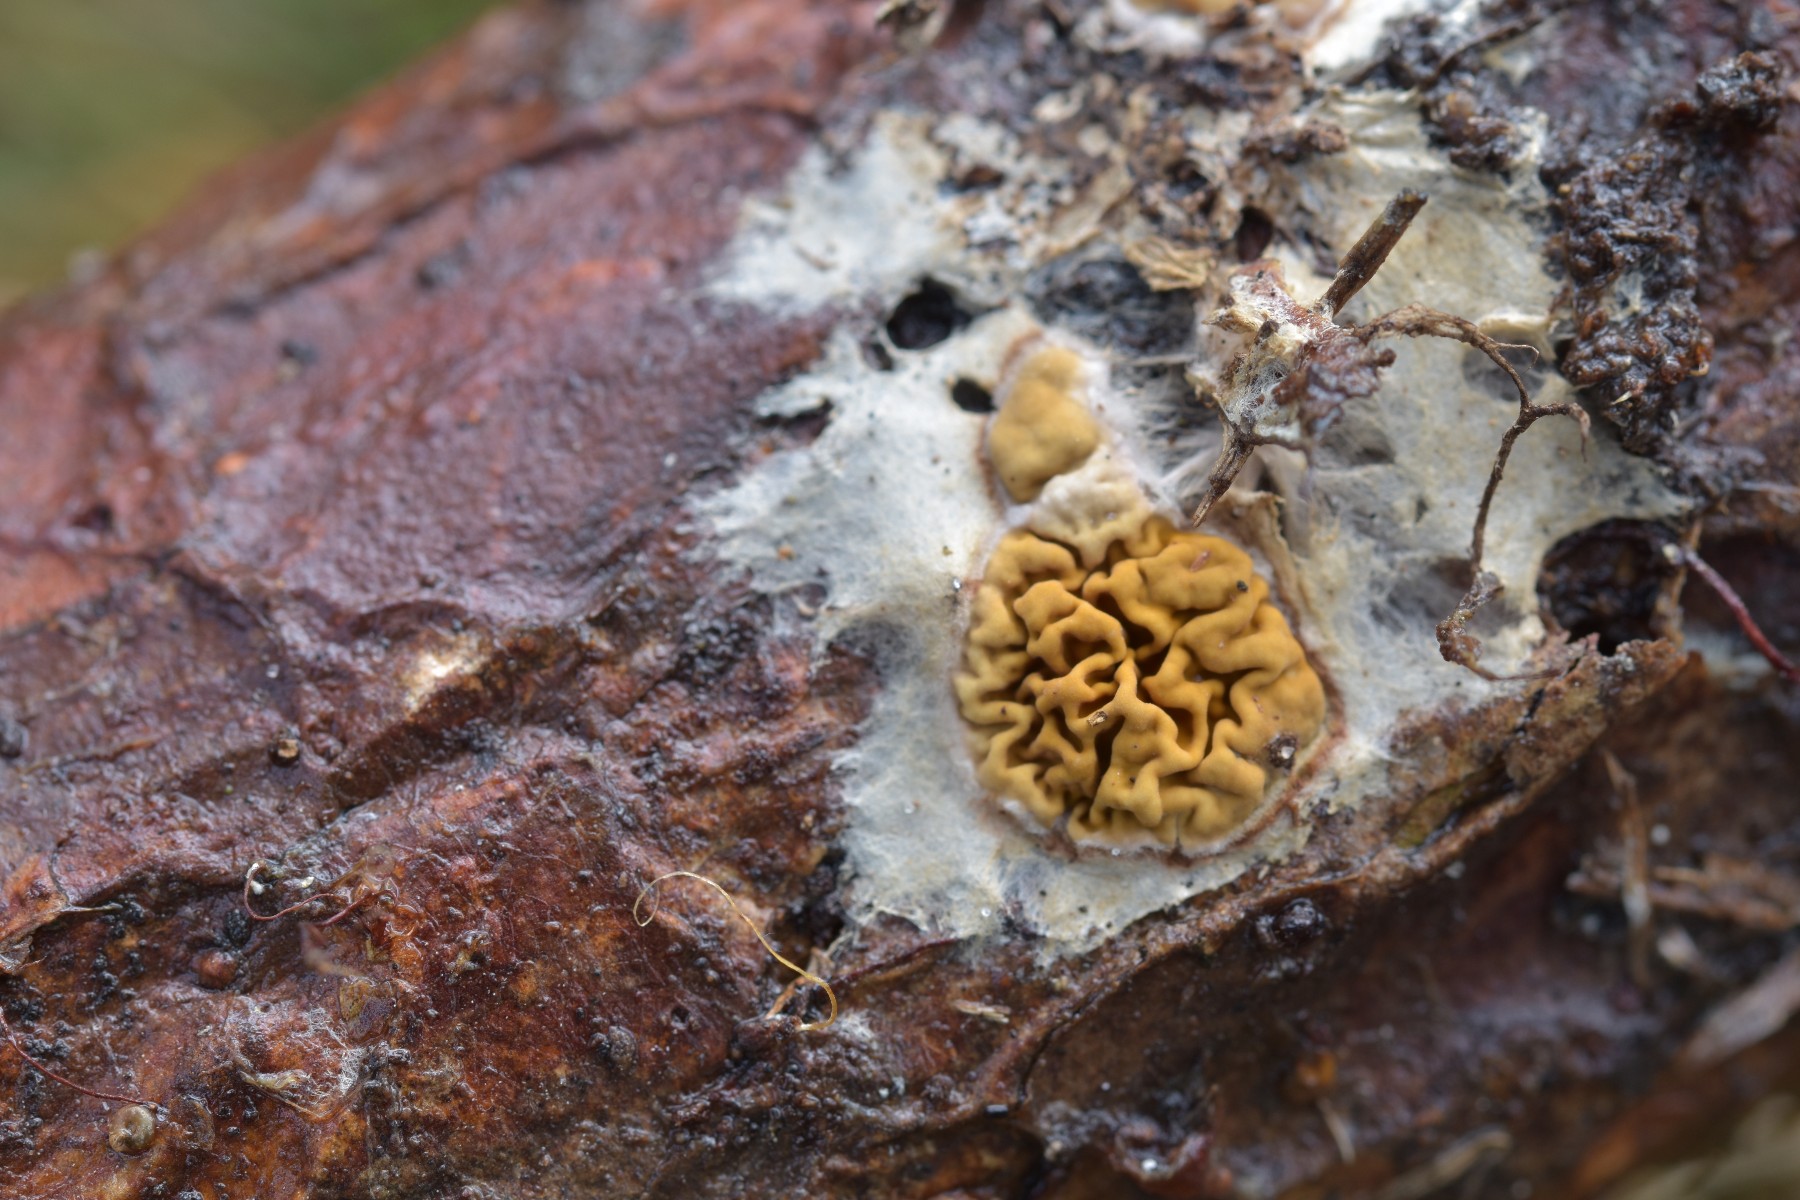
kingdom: Fungi
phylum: Basidiomycota
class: Agaricomycetes
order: Boletales
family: Serpulaceae
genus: Serpula
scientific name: Serpula himantioides
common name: tyndkødet hussvamp
